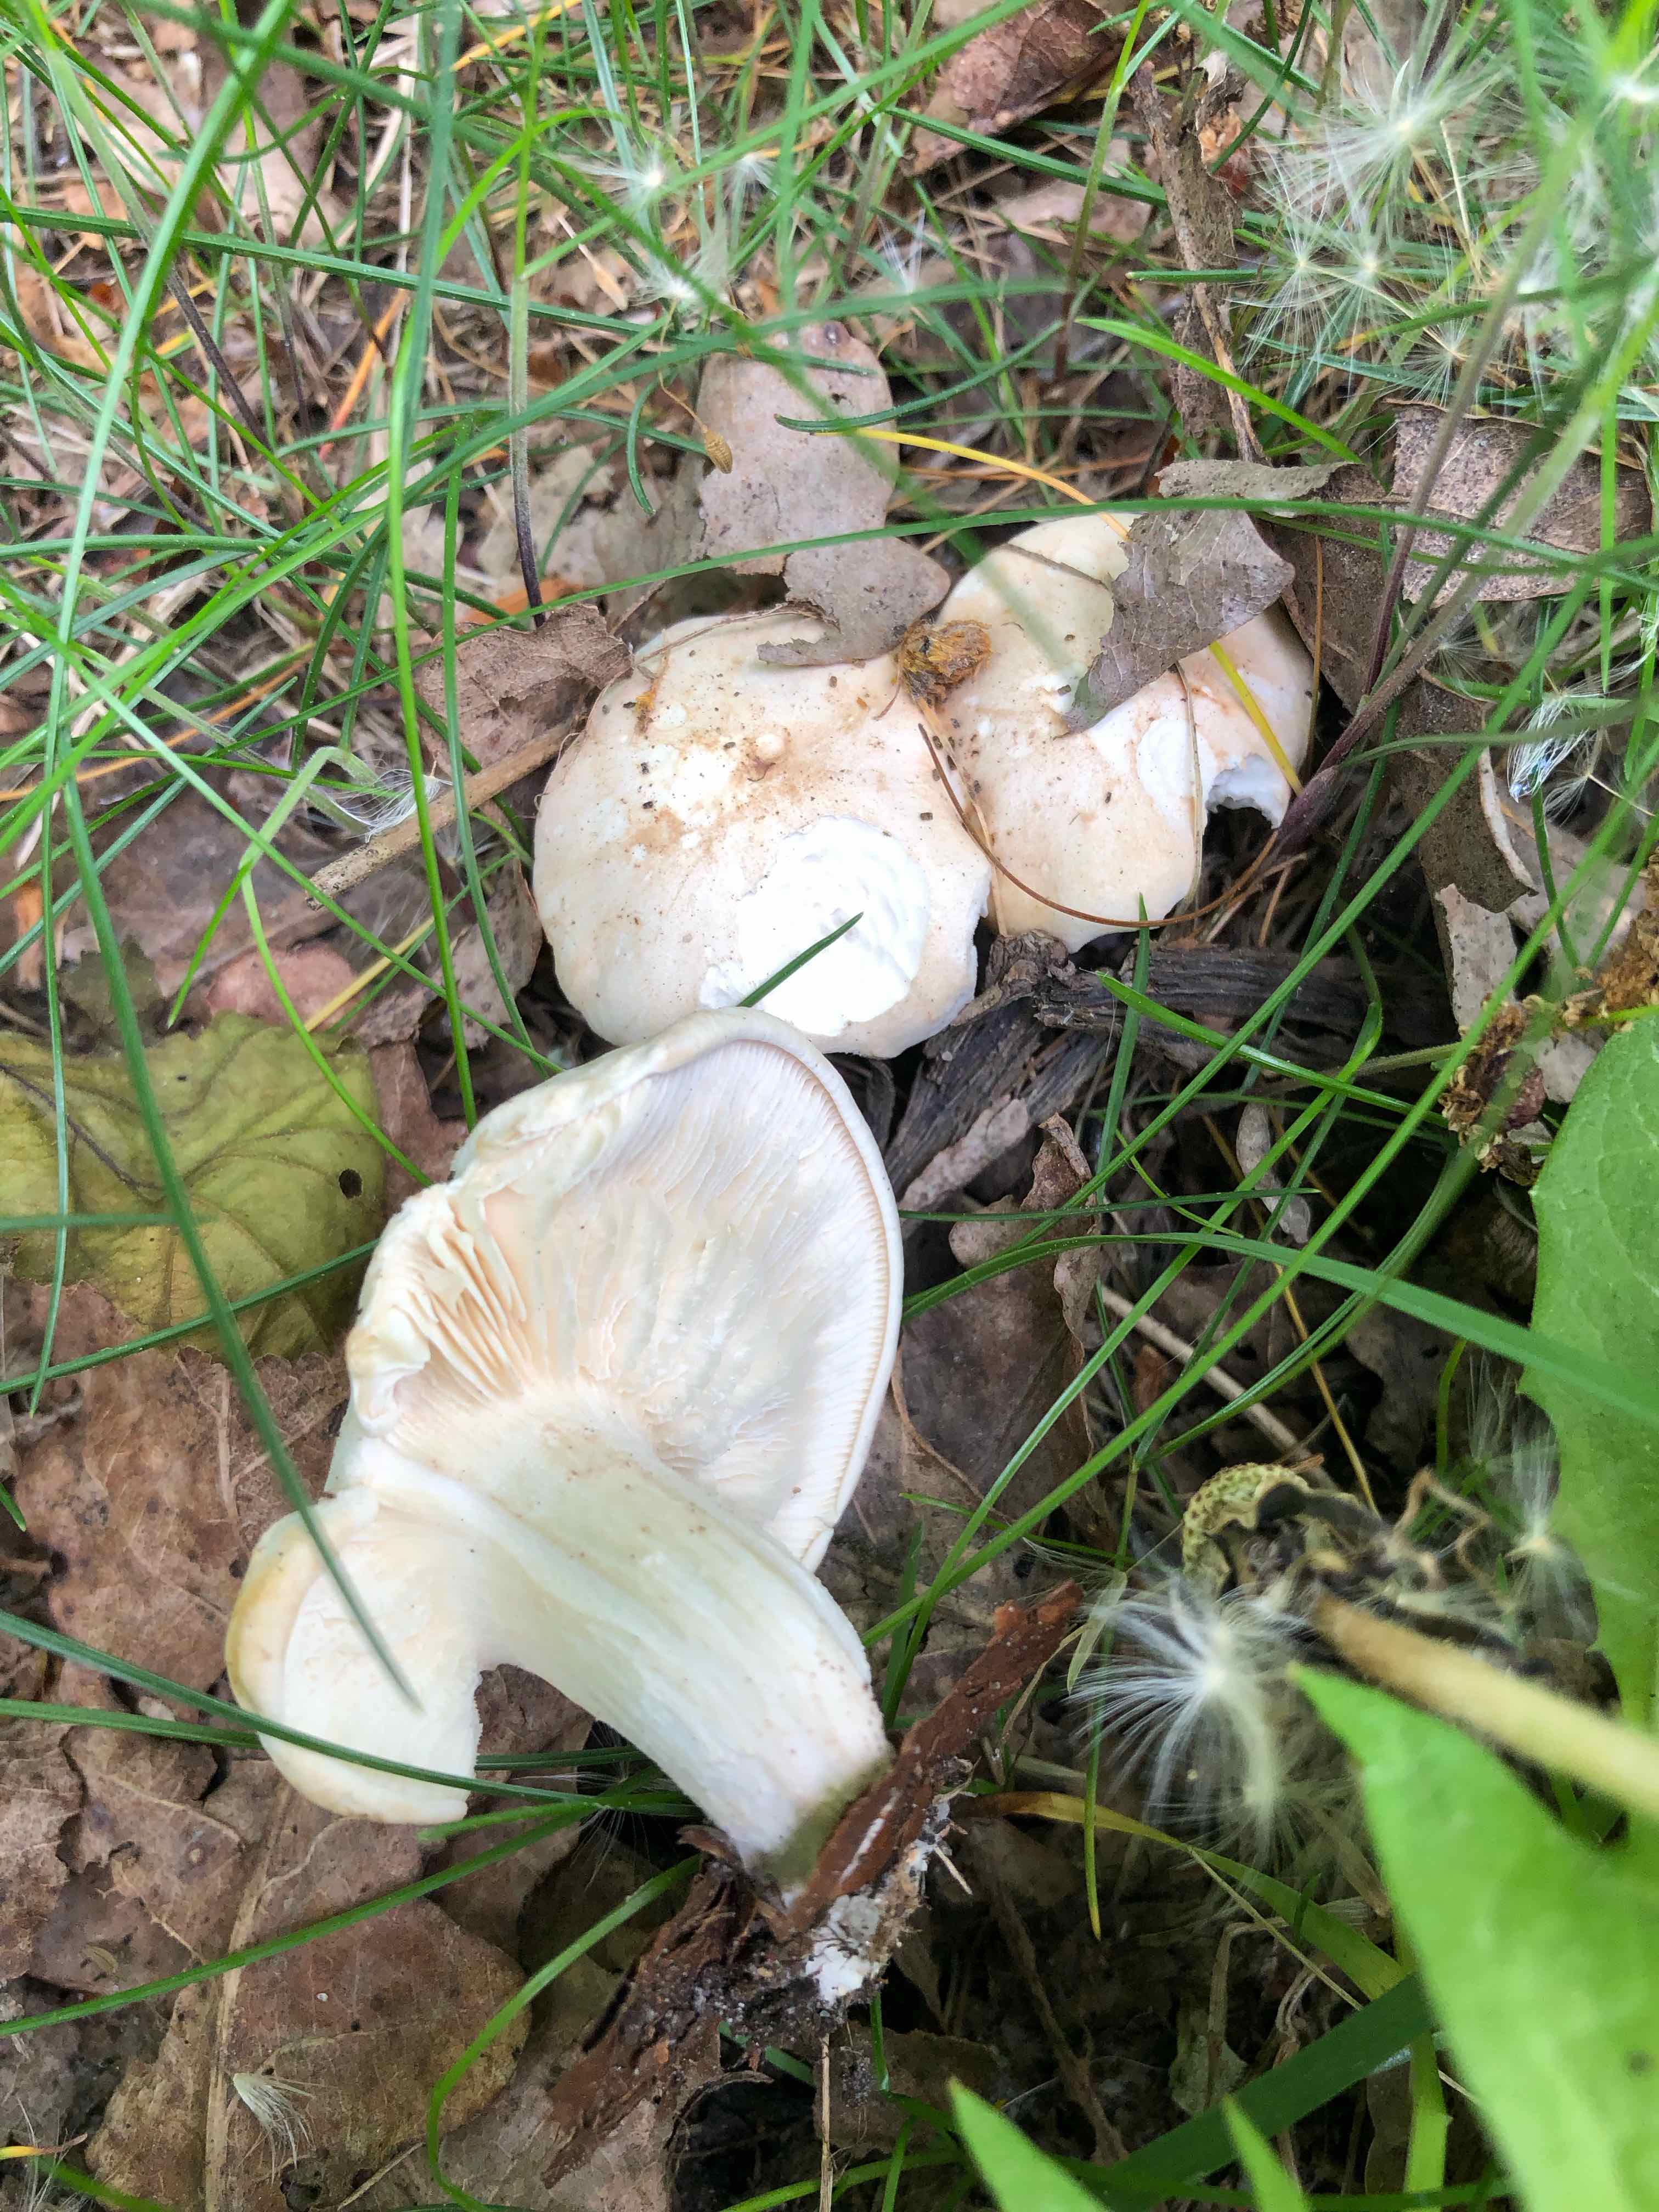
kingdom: Fungi
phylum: Basidiomycota
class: Agaricomycetes
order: Agaricales
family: Lyophyllaceae
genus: Calocybe
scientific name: Calocybe gambosa
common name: vårmusseron
